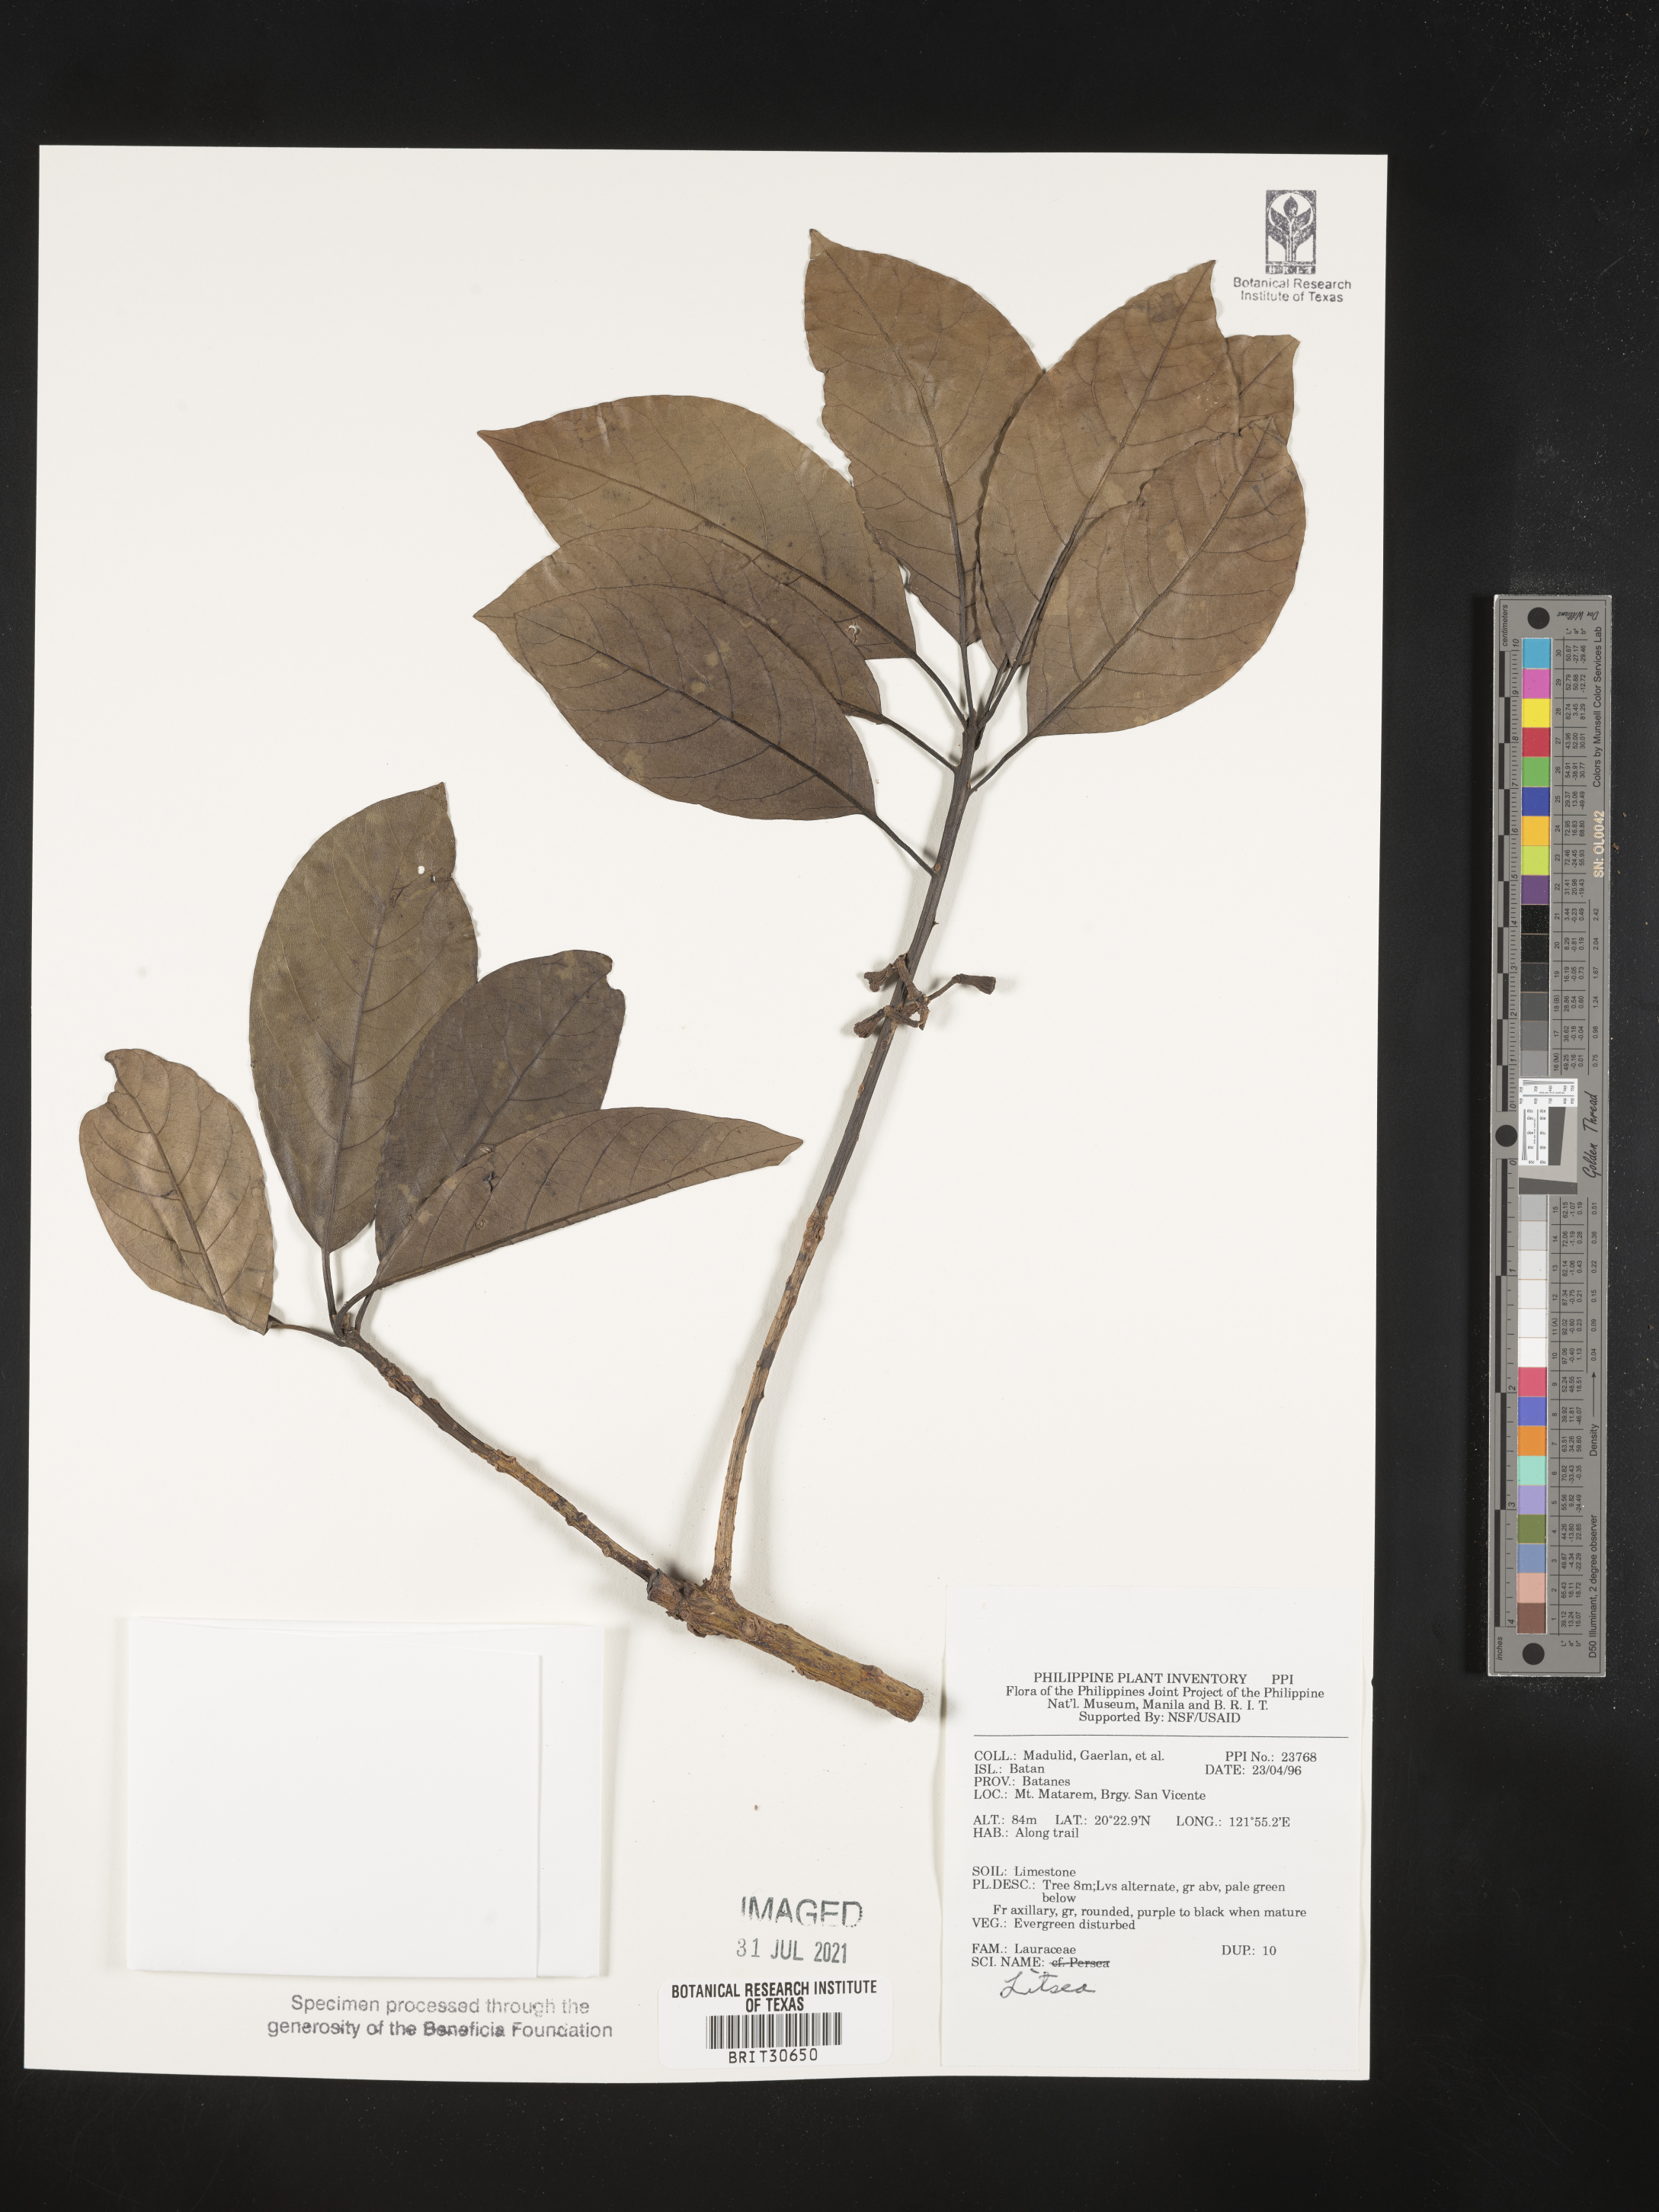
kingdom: Plantae
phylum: Tracheophyta
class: Magnoliopsida
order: Laurales
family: Lauraceae
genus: Litsea
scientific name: Litsea
